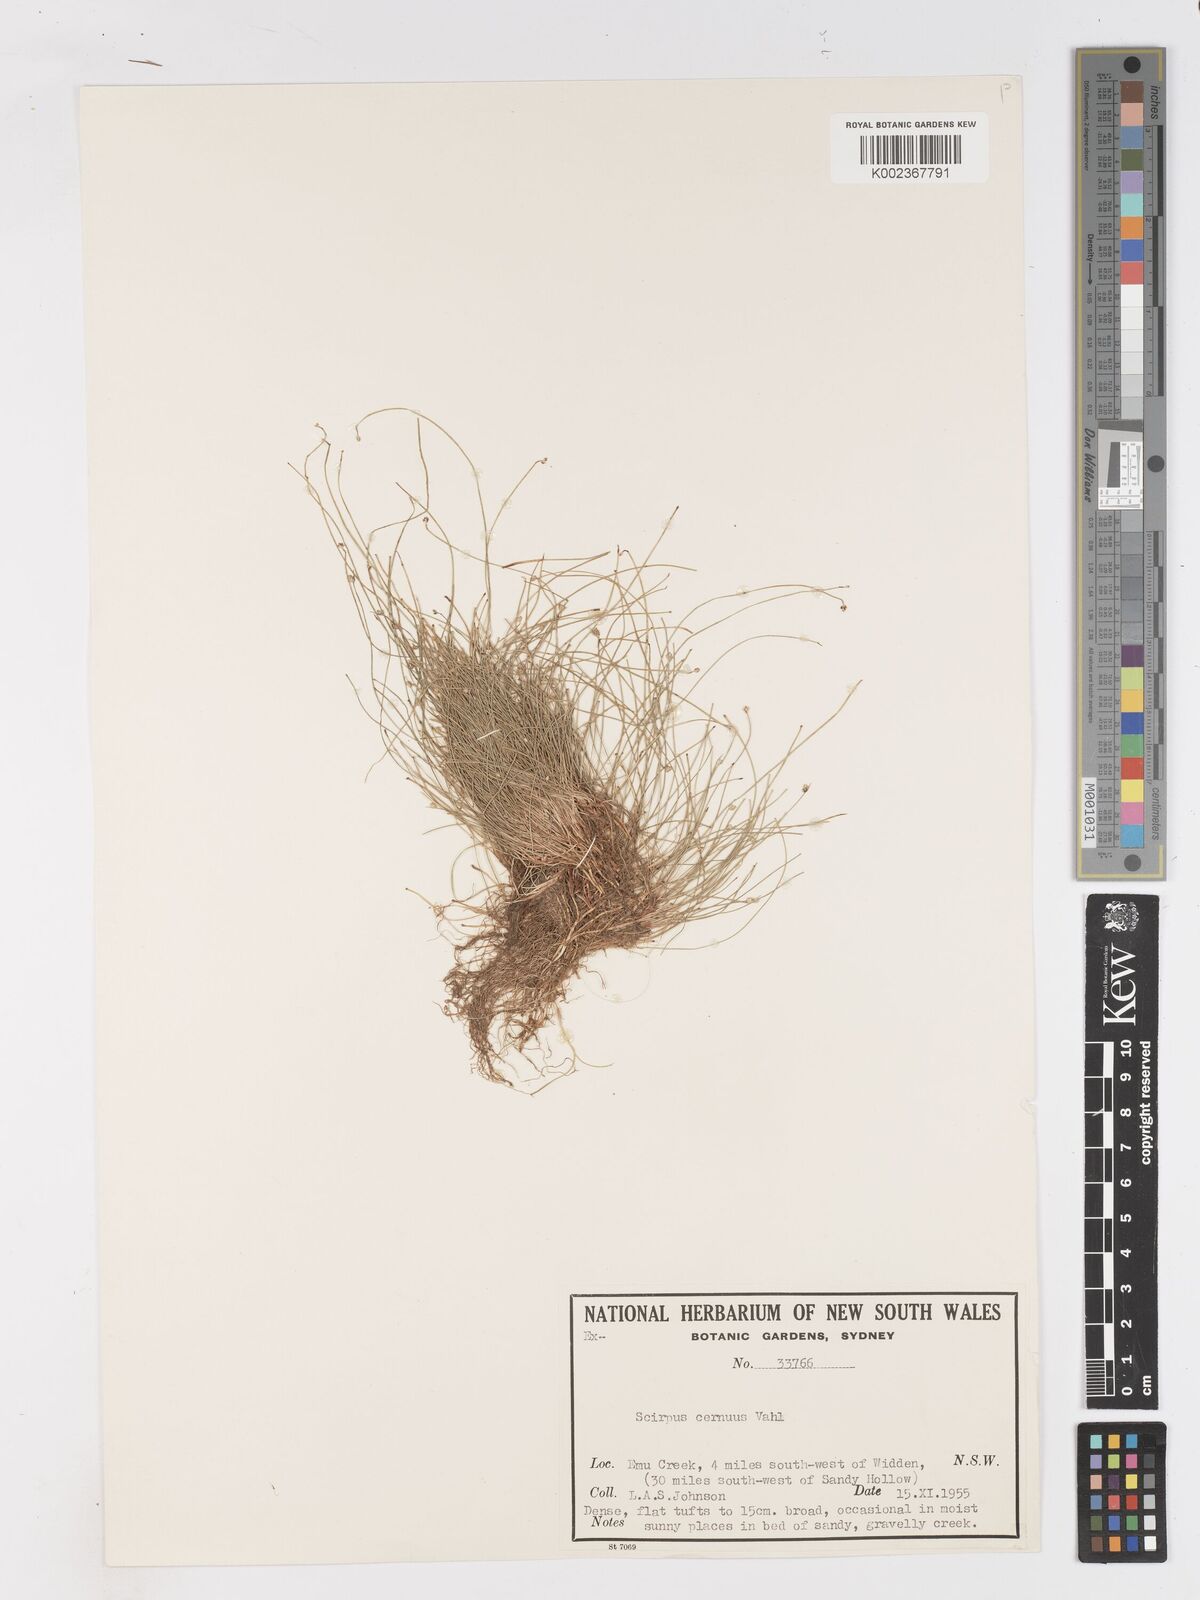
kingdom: Plantae
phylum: Tracheophyta
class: Liliopsida
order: Poales
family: Cyperaceae
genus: Isolepis
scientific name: Isolepis cernua
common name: Slender club-rush
